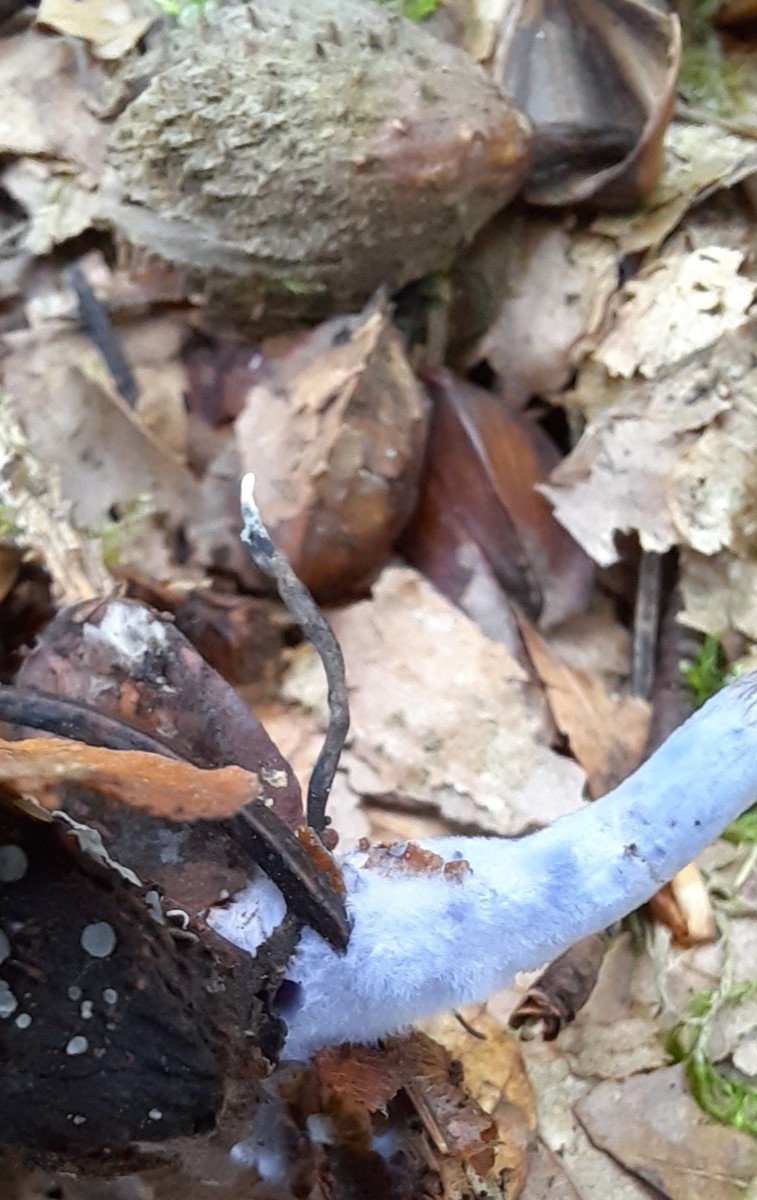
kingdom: Fungi
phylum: Ascomycota
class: Sordariomycetes
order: Xylariales
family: Xylariaceae
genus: Xylaria
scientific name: Xylaria carpophila
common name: bogskål-stødsvamp
